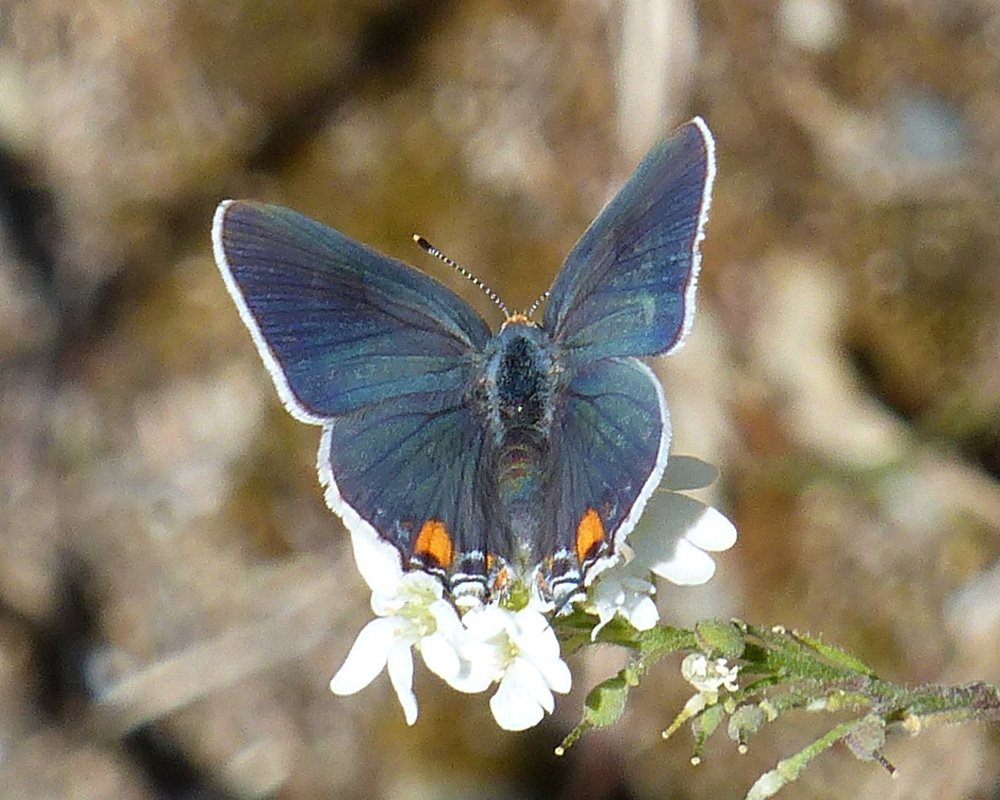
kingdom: Animalia
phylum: Arthropoda
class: Insecta
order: Lepidoptera
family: Lycaenidae
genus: Strymon
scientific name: Strymon melinus
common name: Gray Hairstreak
